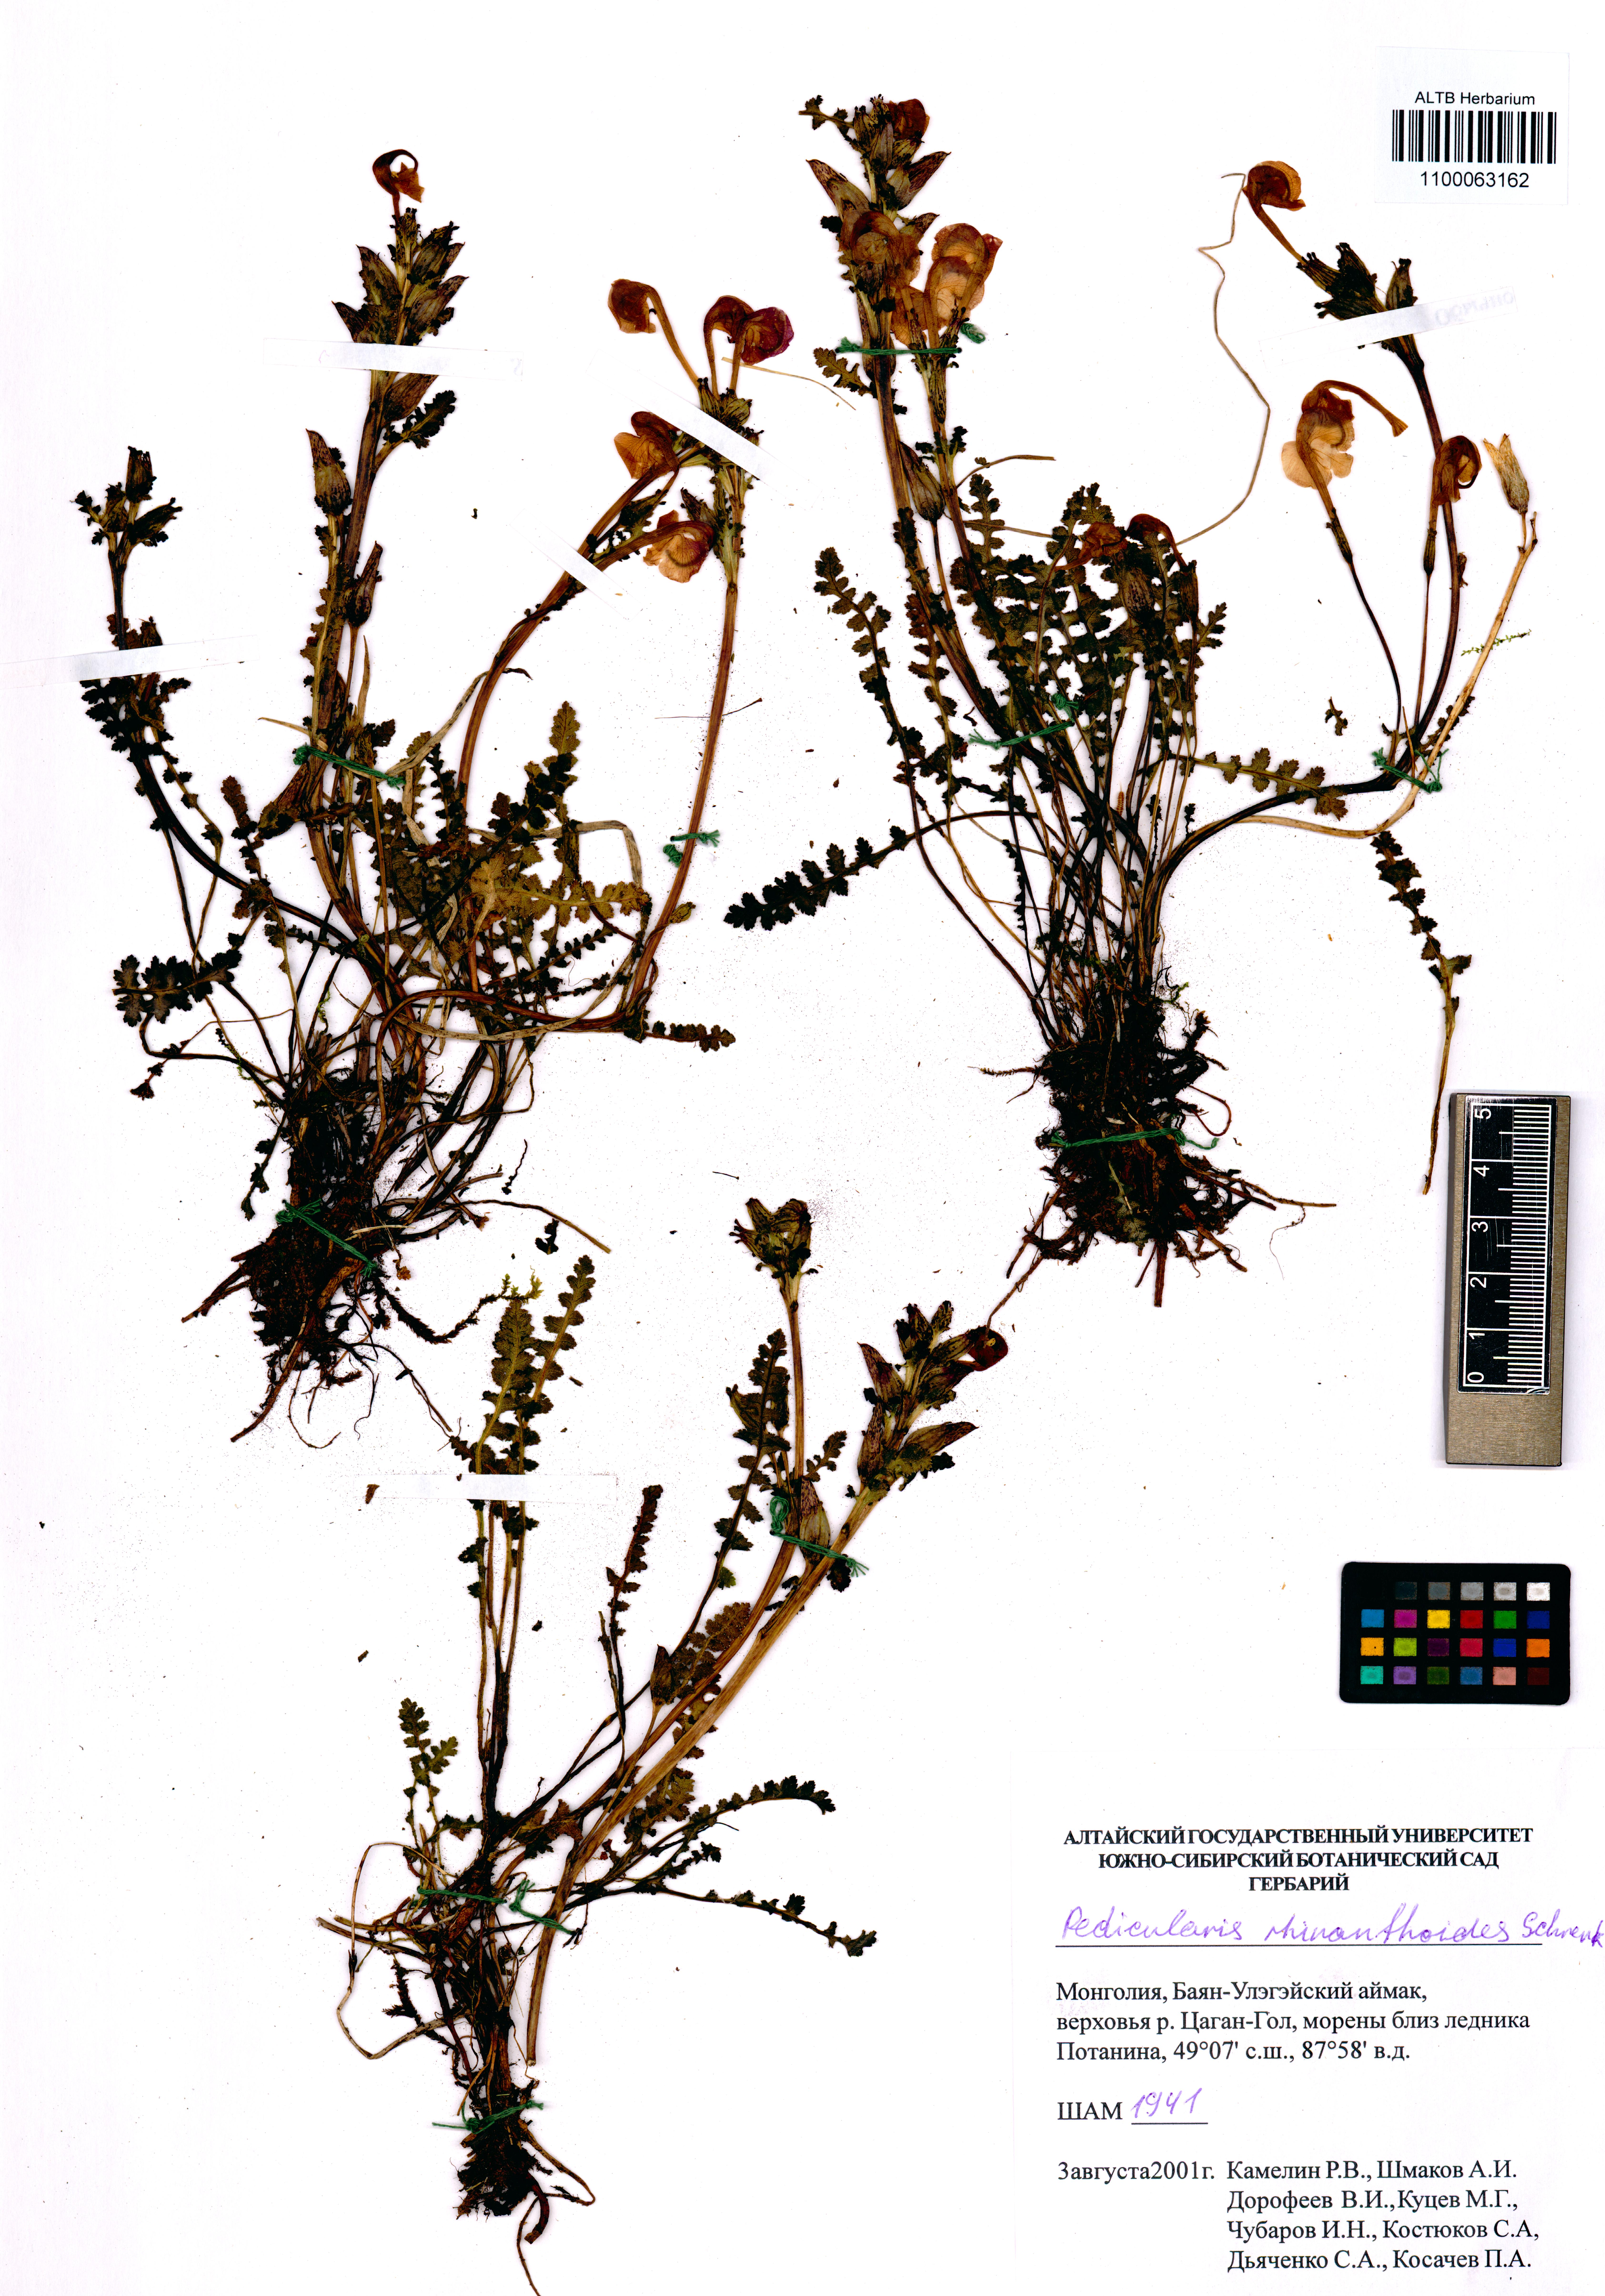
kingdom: Plantae
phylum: Tracheophyta
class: Magnoliopsida
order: Lamiales
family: Orobanchaceae
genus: Pedicularis
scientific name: Pedicularis rhinanthoides
